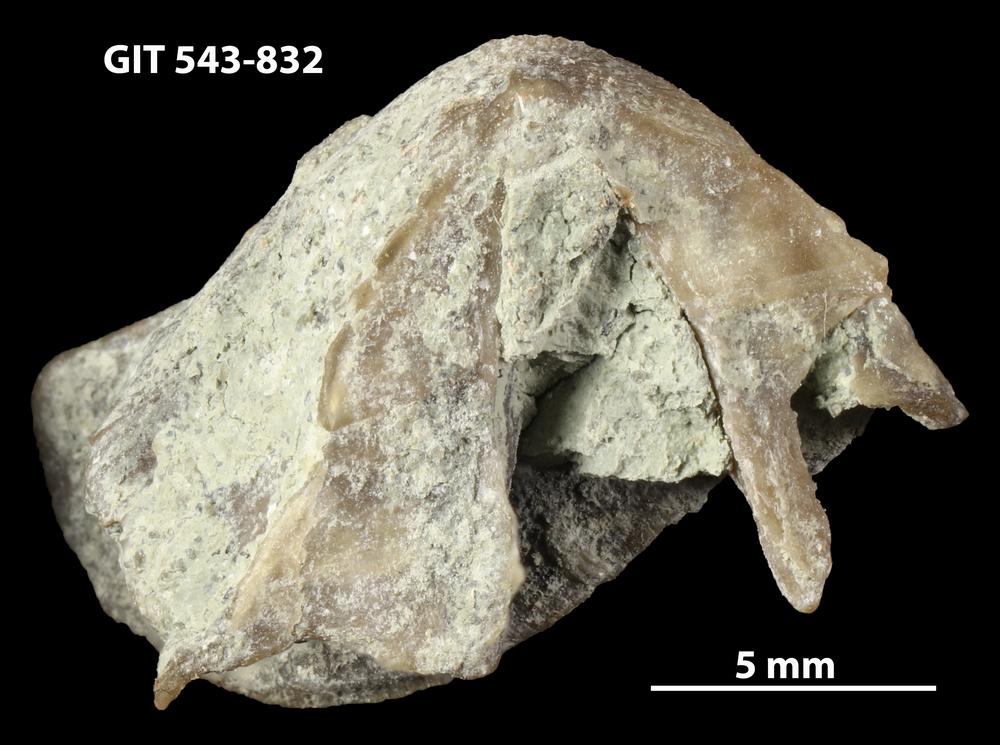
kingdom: Animalia
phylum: Brachiopoda
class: Rhynchonellata
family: Clitambonitidae
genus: Vellamo
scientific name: Vellamo
